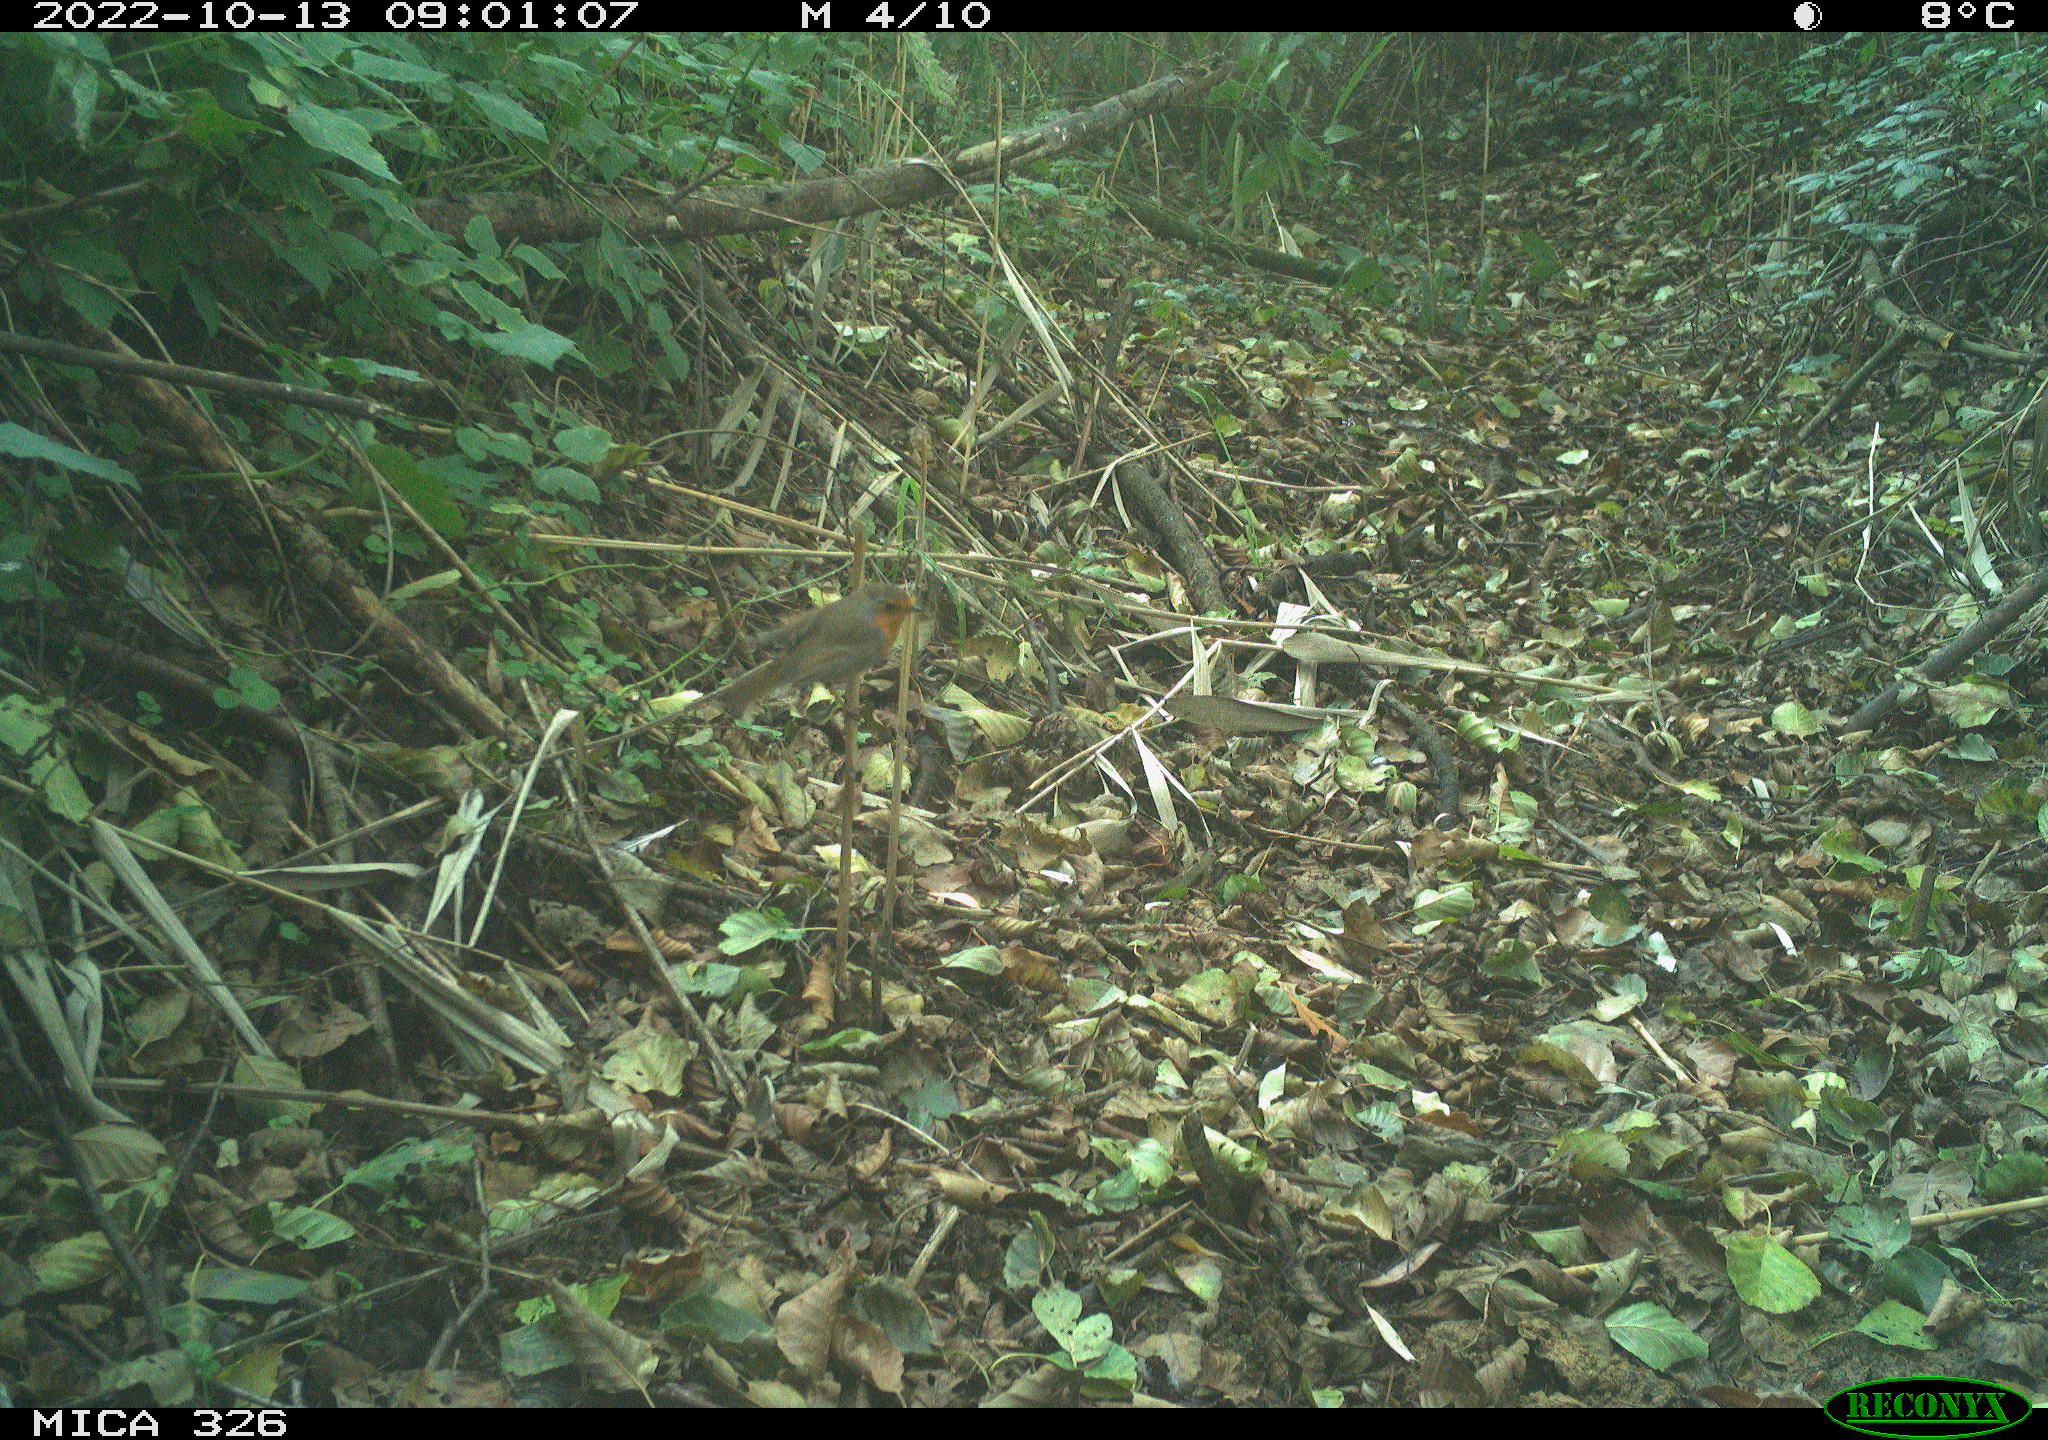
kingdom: Animalia
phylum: Chordata
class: Aves
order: Passeriformes
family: Muscicapidae
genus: Erithacus
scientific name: Erithacus rubecula
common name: European robin
